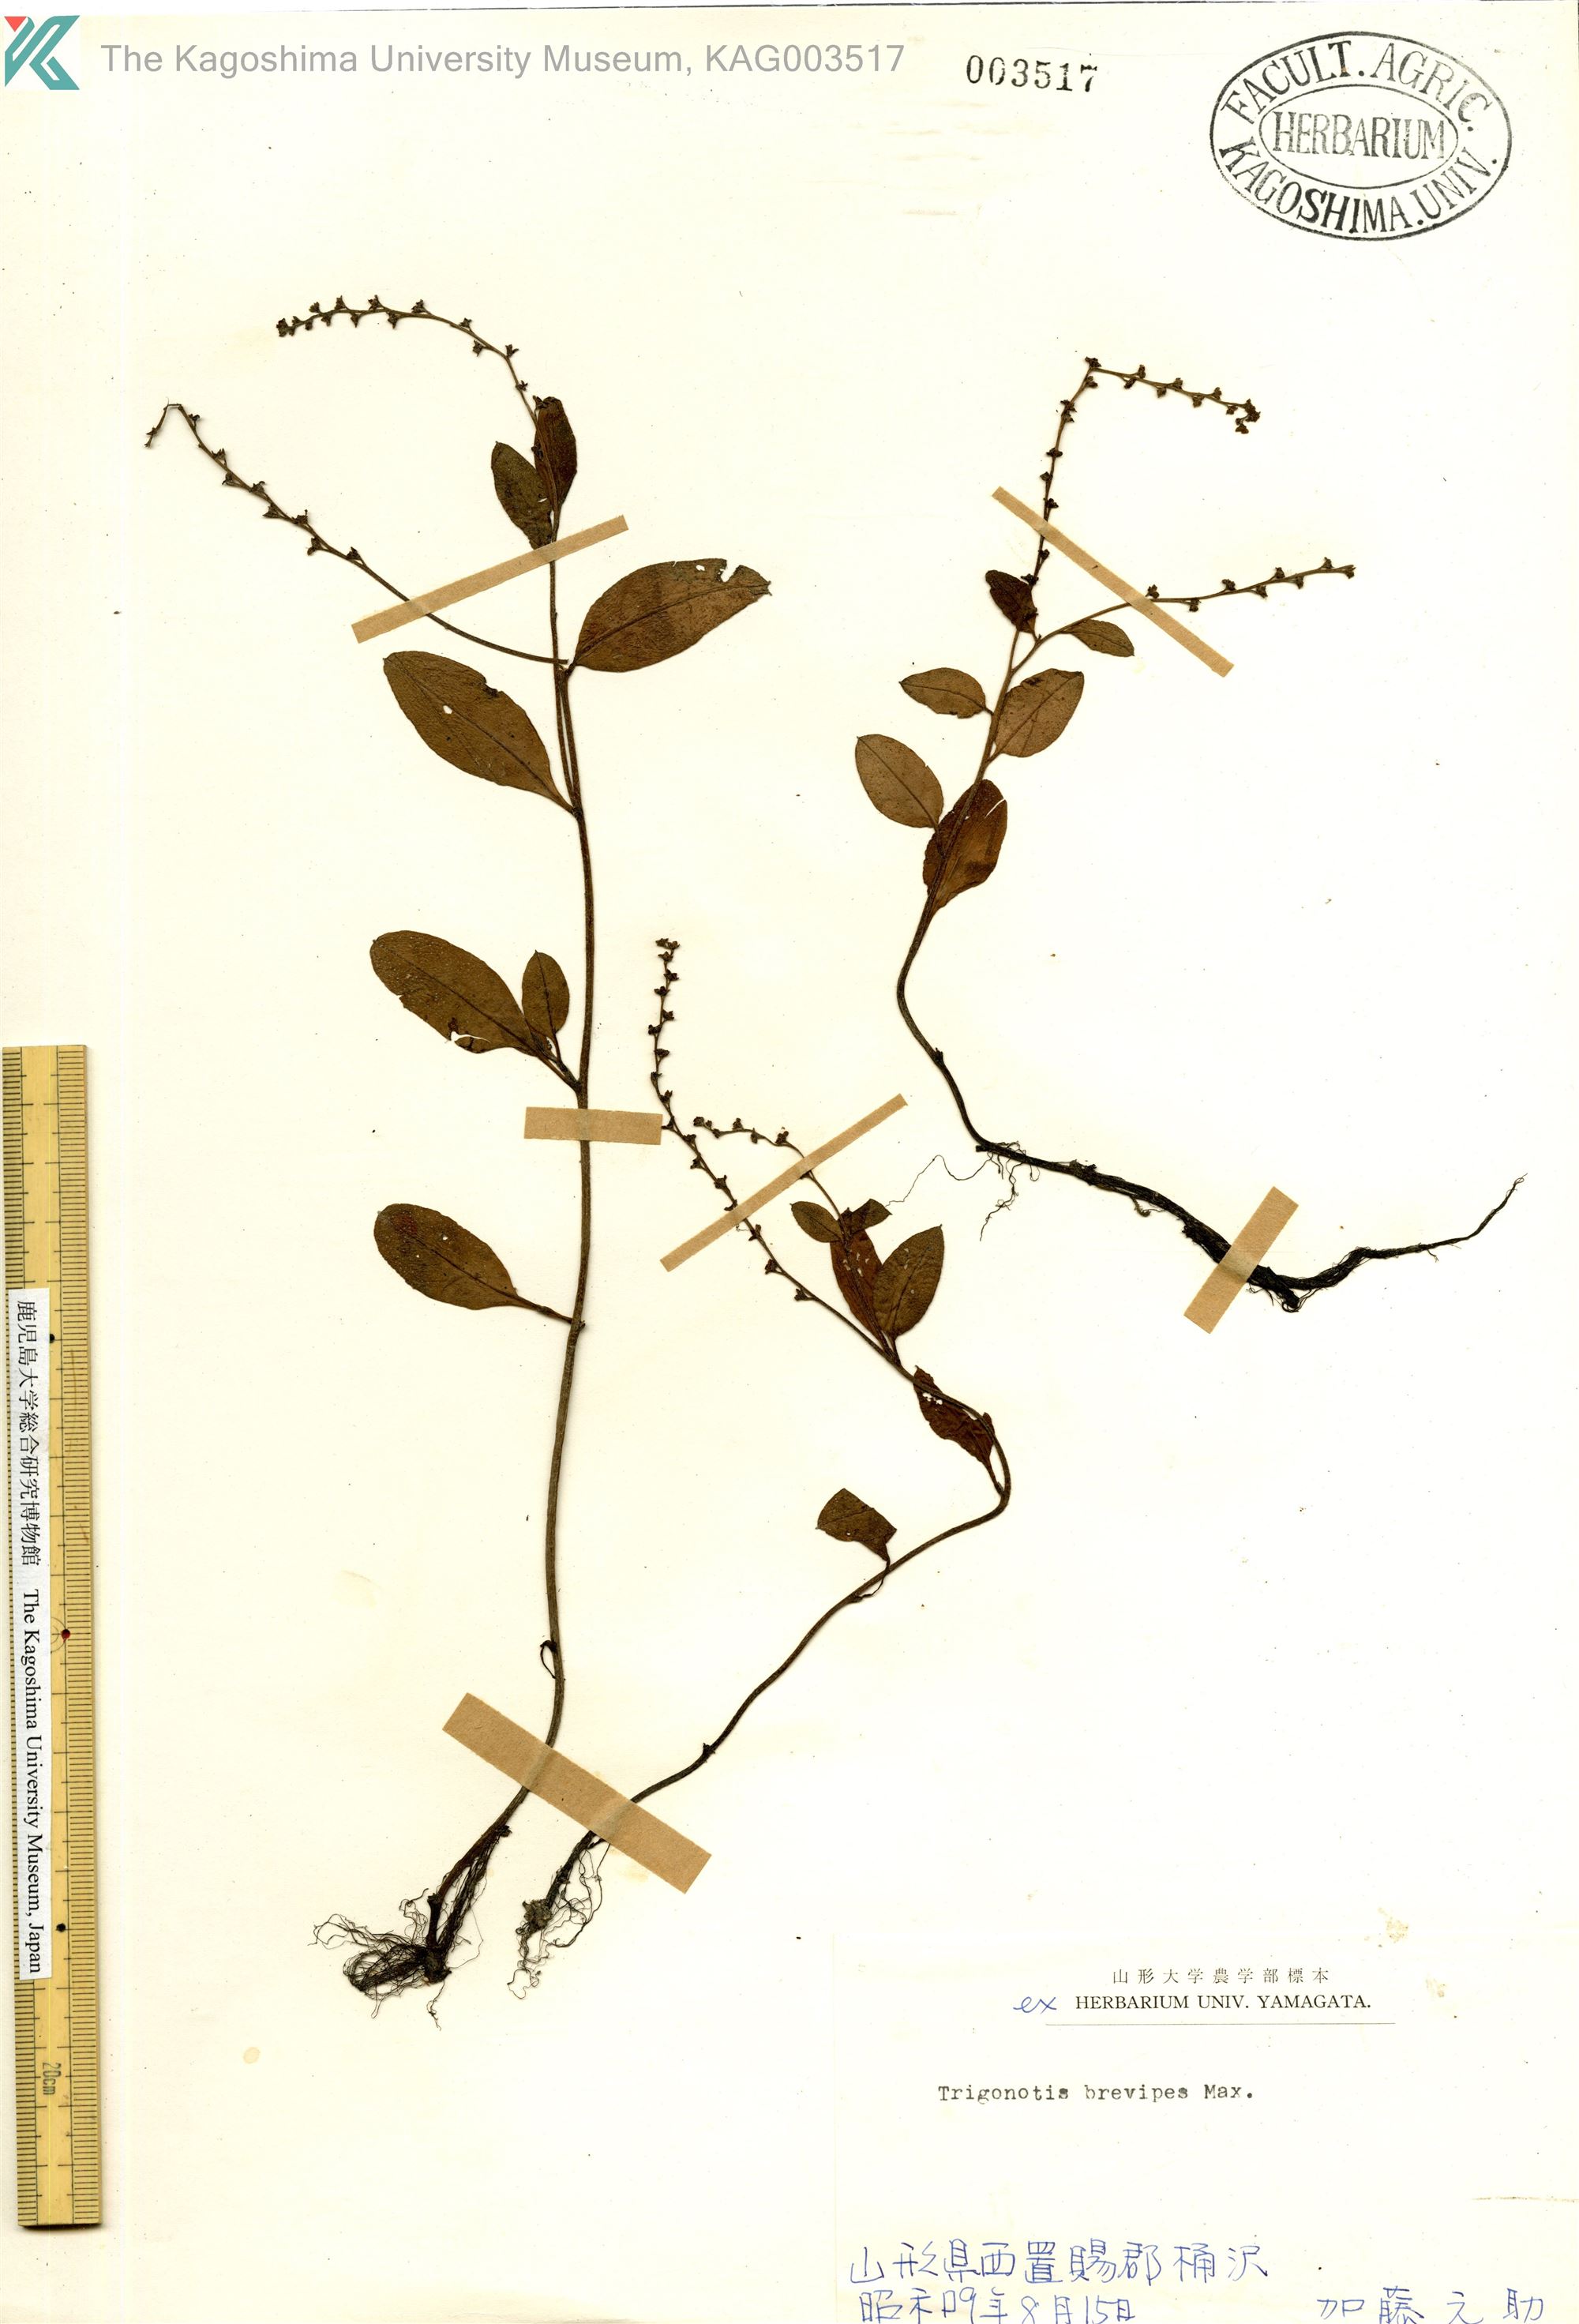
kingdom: Plantae
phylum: Tracheophyta
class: Magnoliopsida
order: Boraginales
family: Boraginaceae
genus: Trigonotis
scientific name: Trigonotis brevipes
